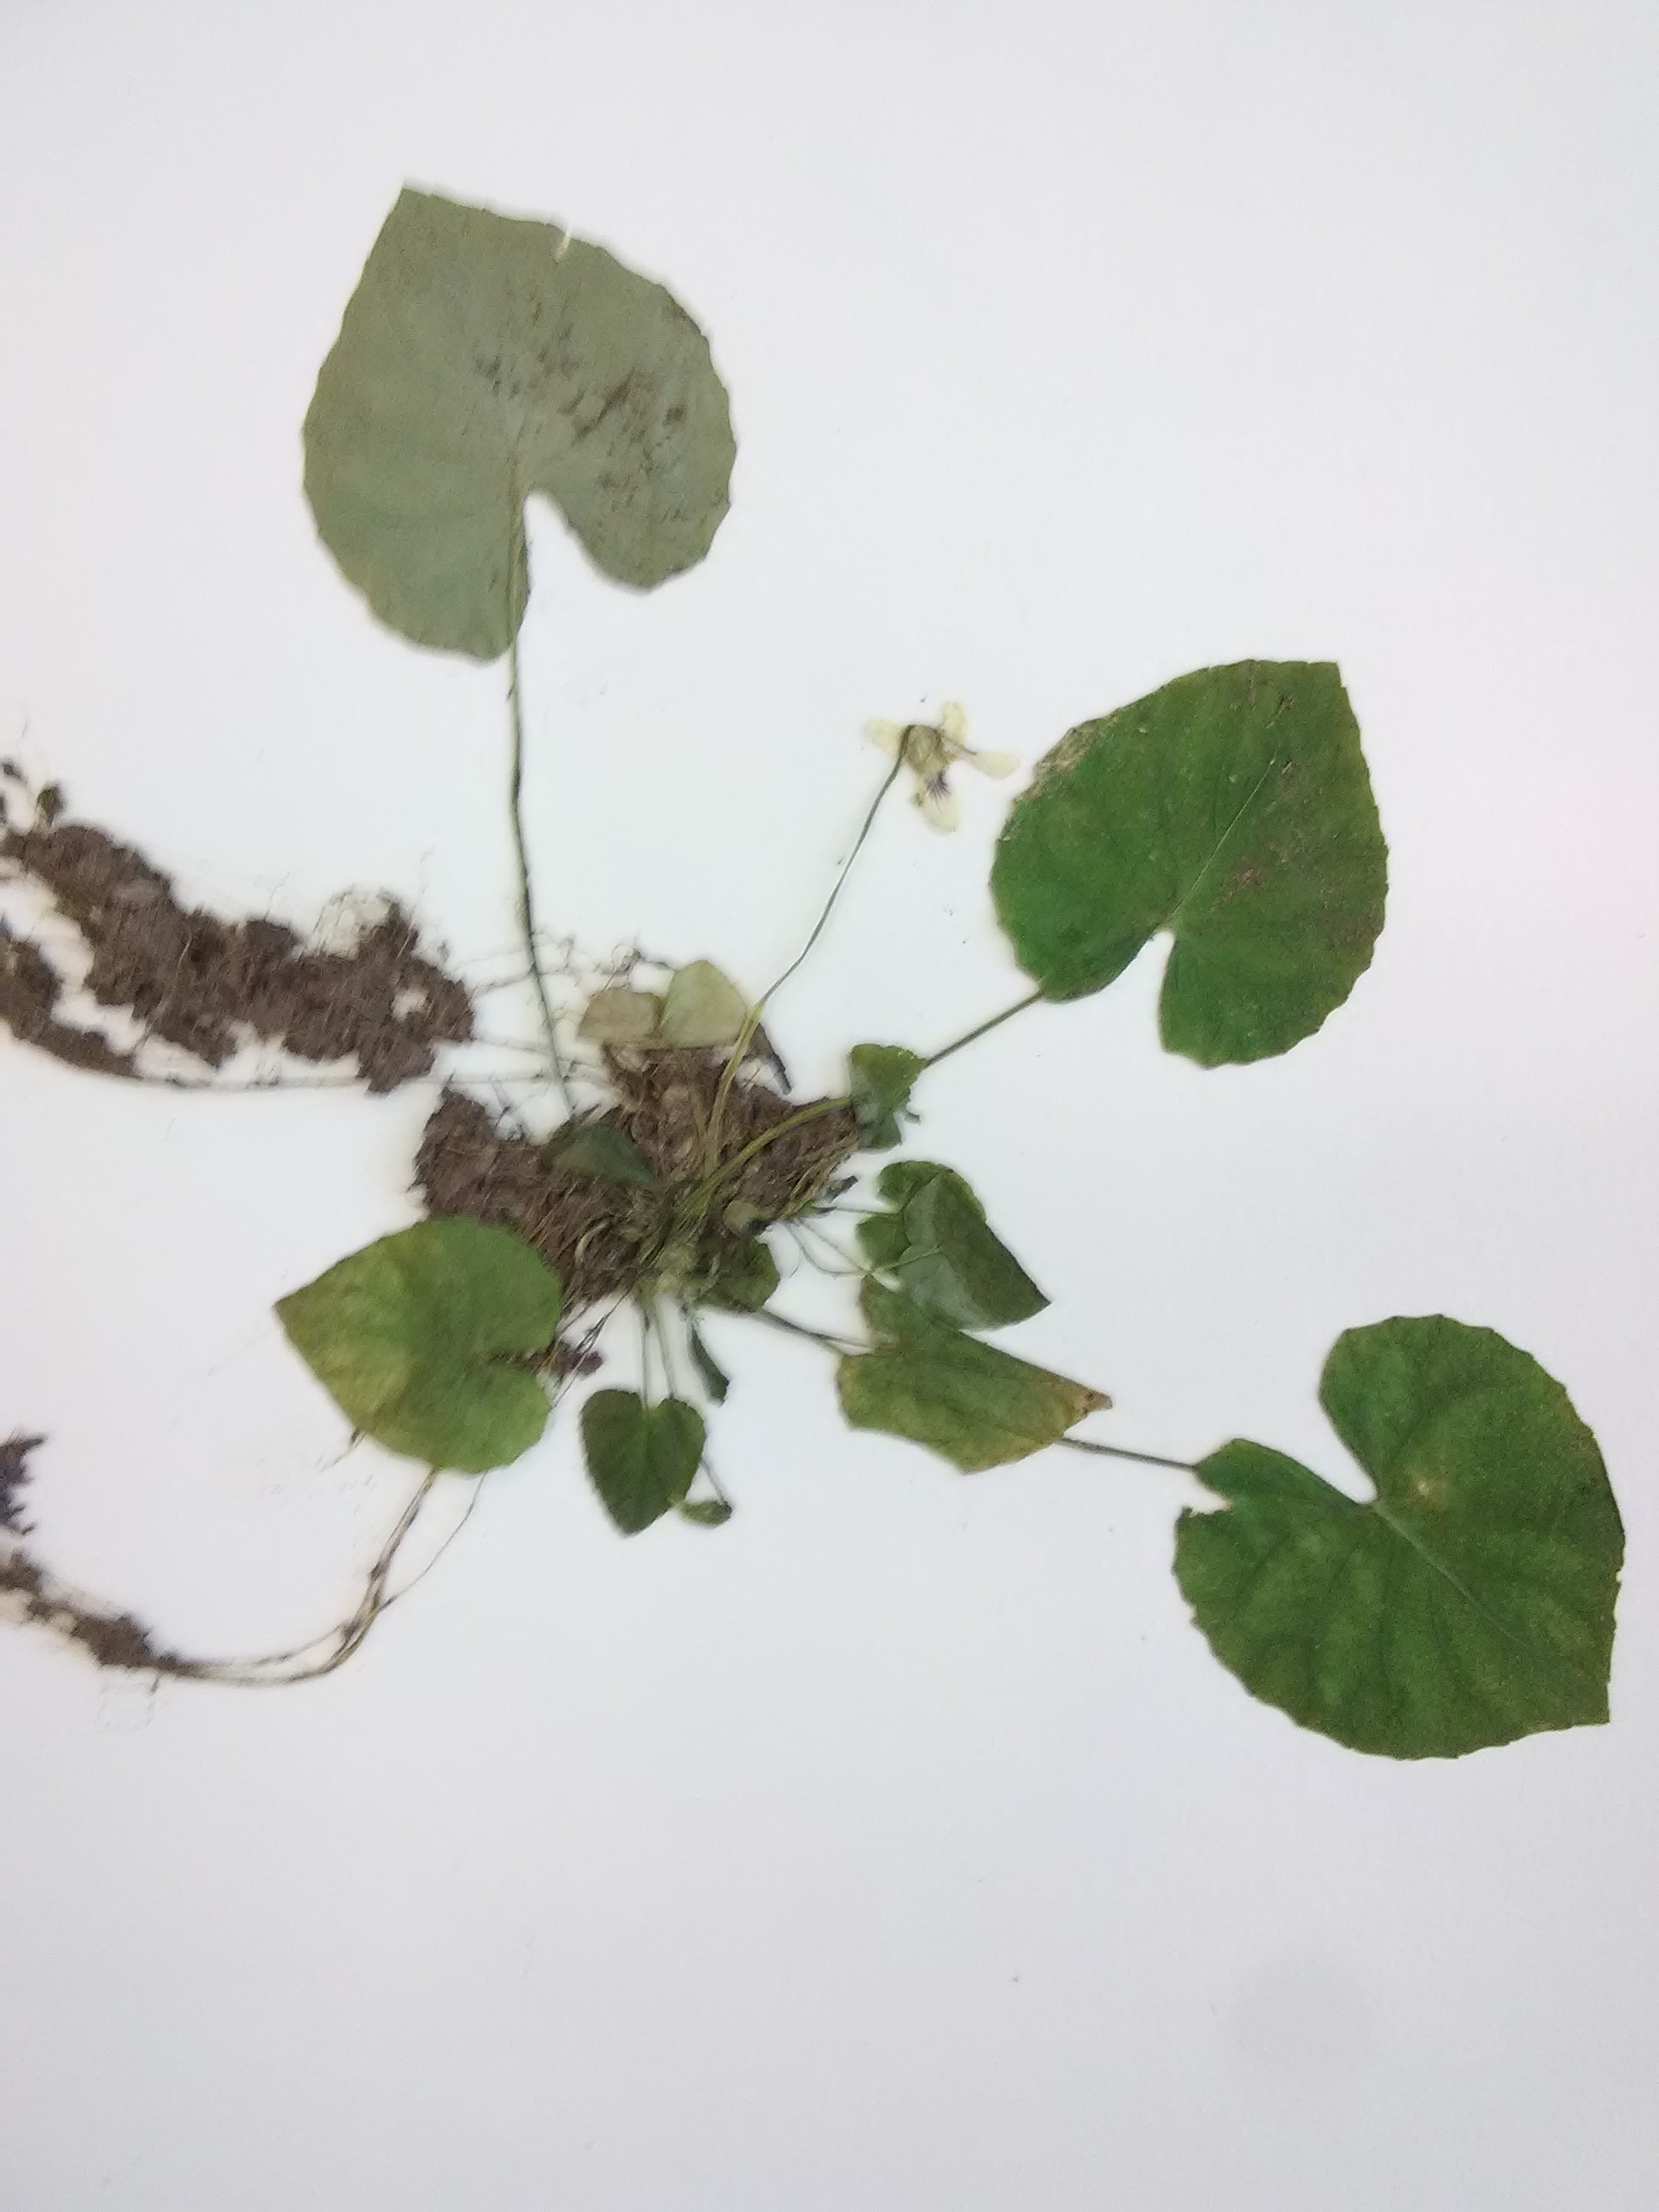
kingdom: Plantae
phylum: Tracheophyta
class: Magnoliopsida
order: Malpighiales
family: Violaceae
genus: Viola
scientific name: Viola renifolia
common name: Kidney-leaved violet
